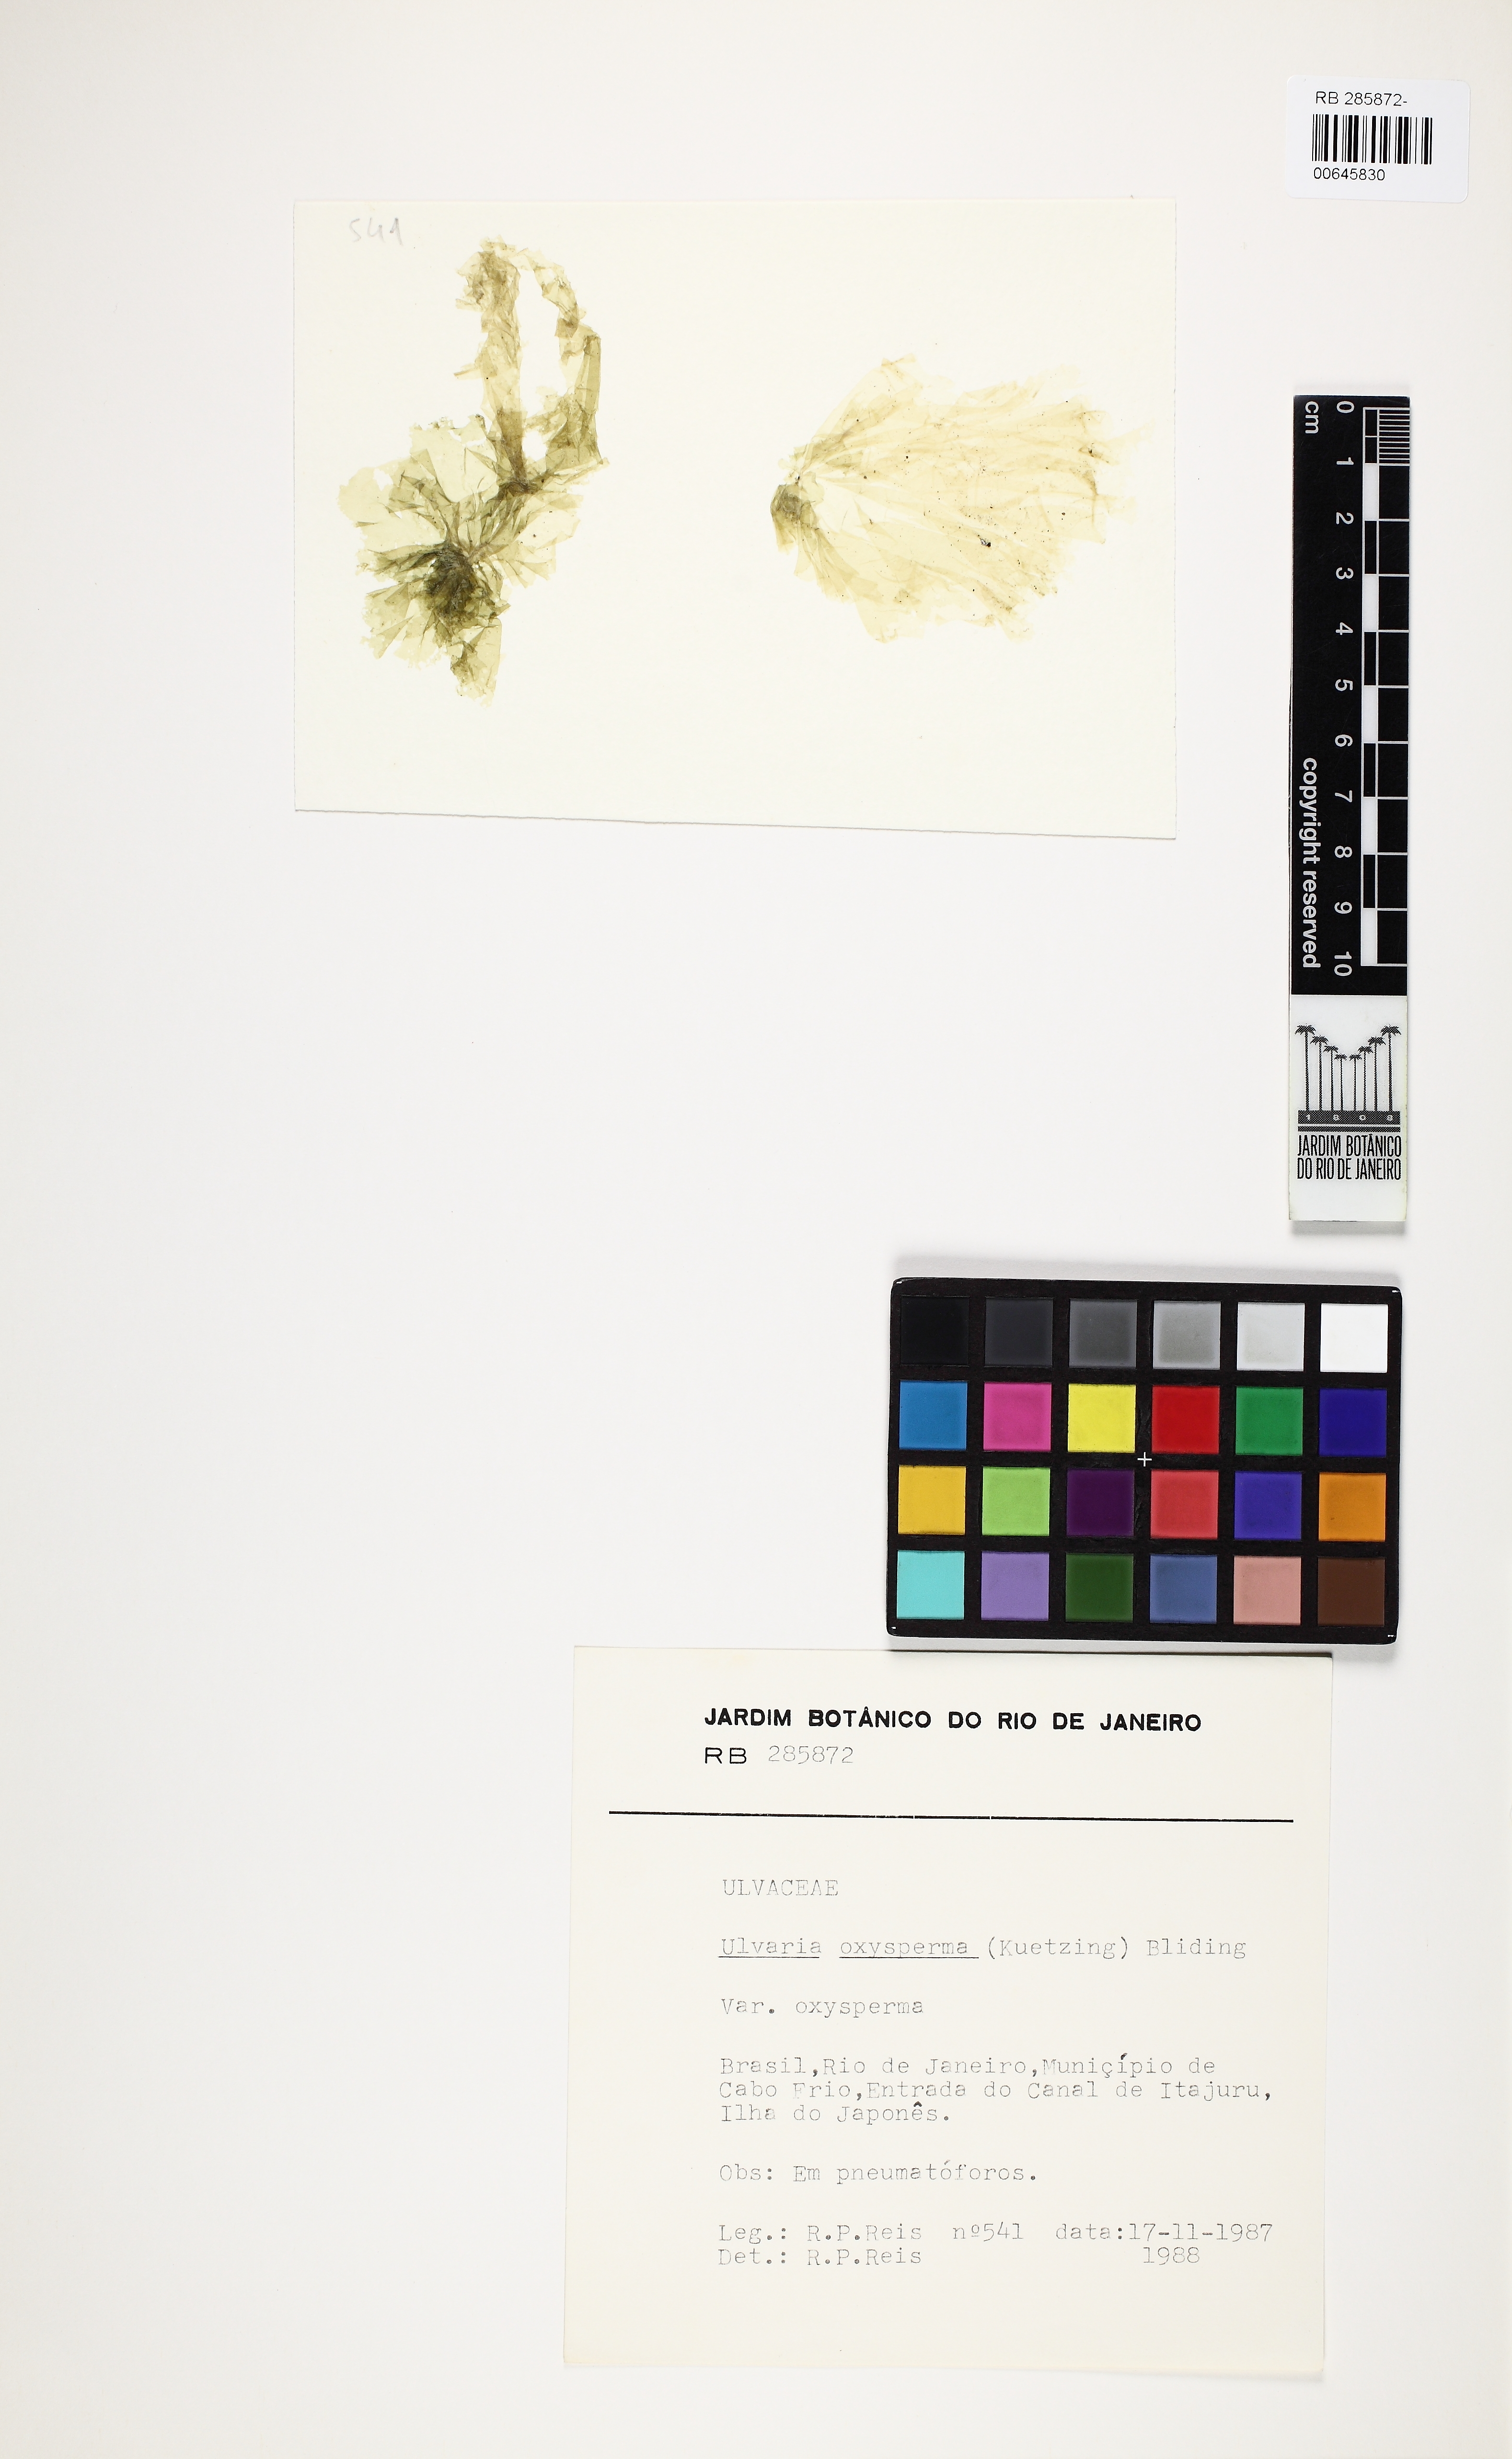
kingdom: Plantae
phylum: Chlorophyta
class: Ulvophyceae
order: Ulvales
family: Gayraliaceae
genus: Gayralia
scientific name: Gayralia oxysperma
